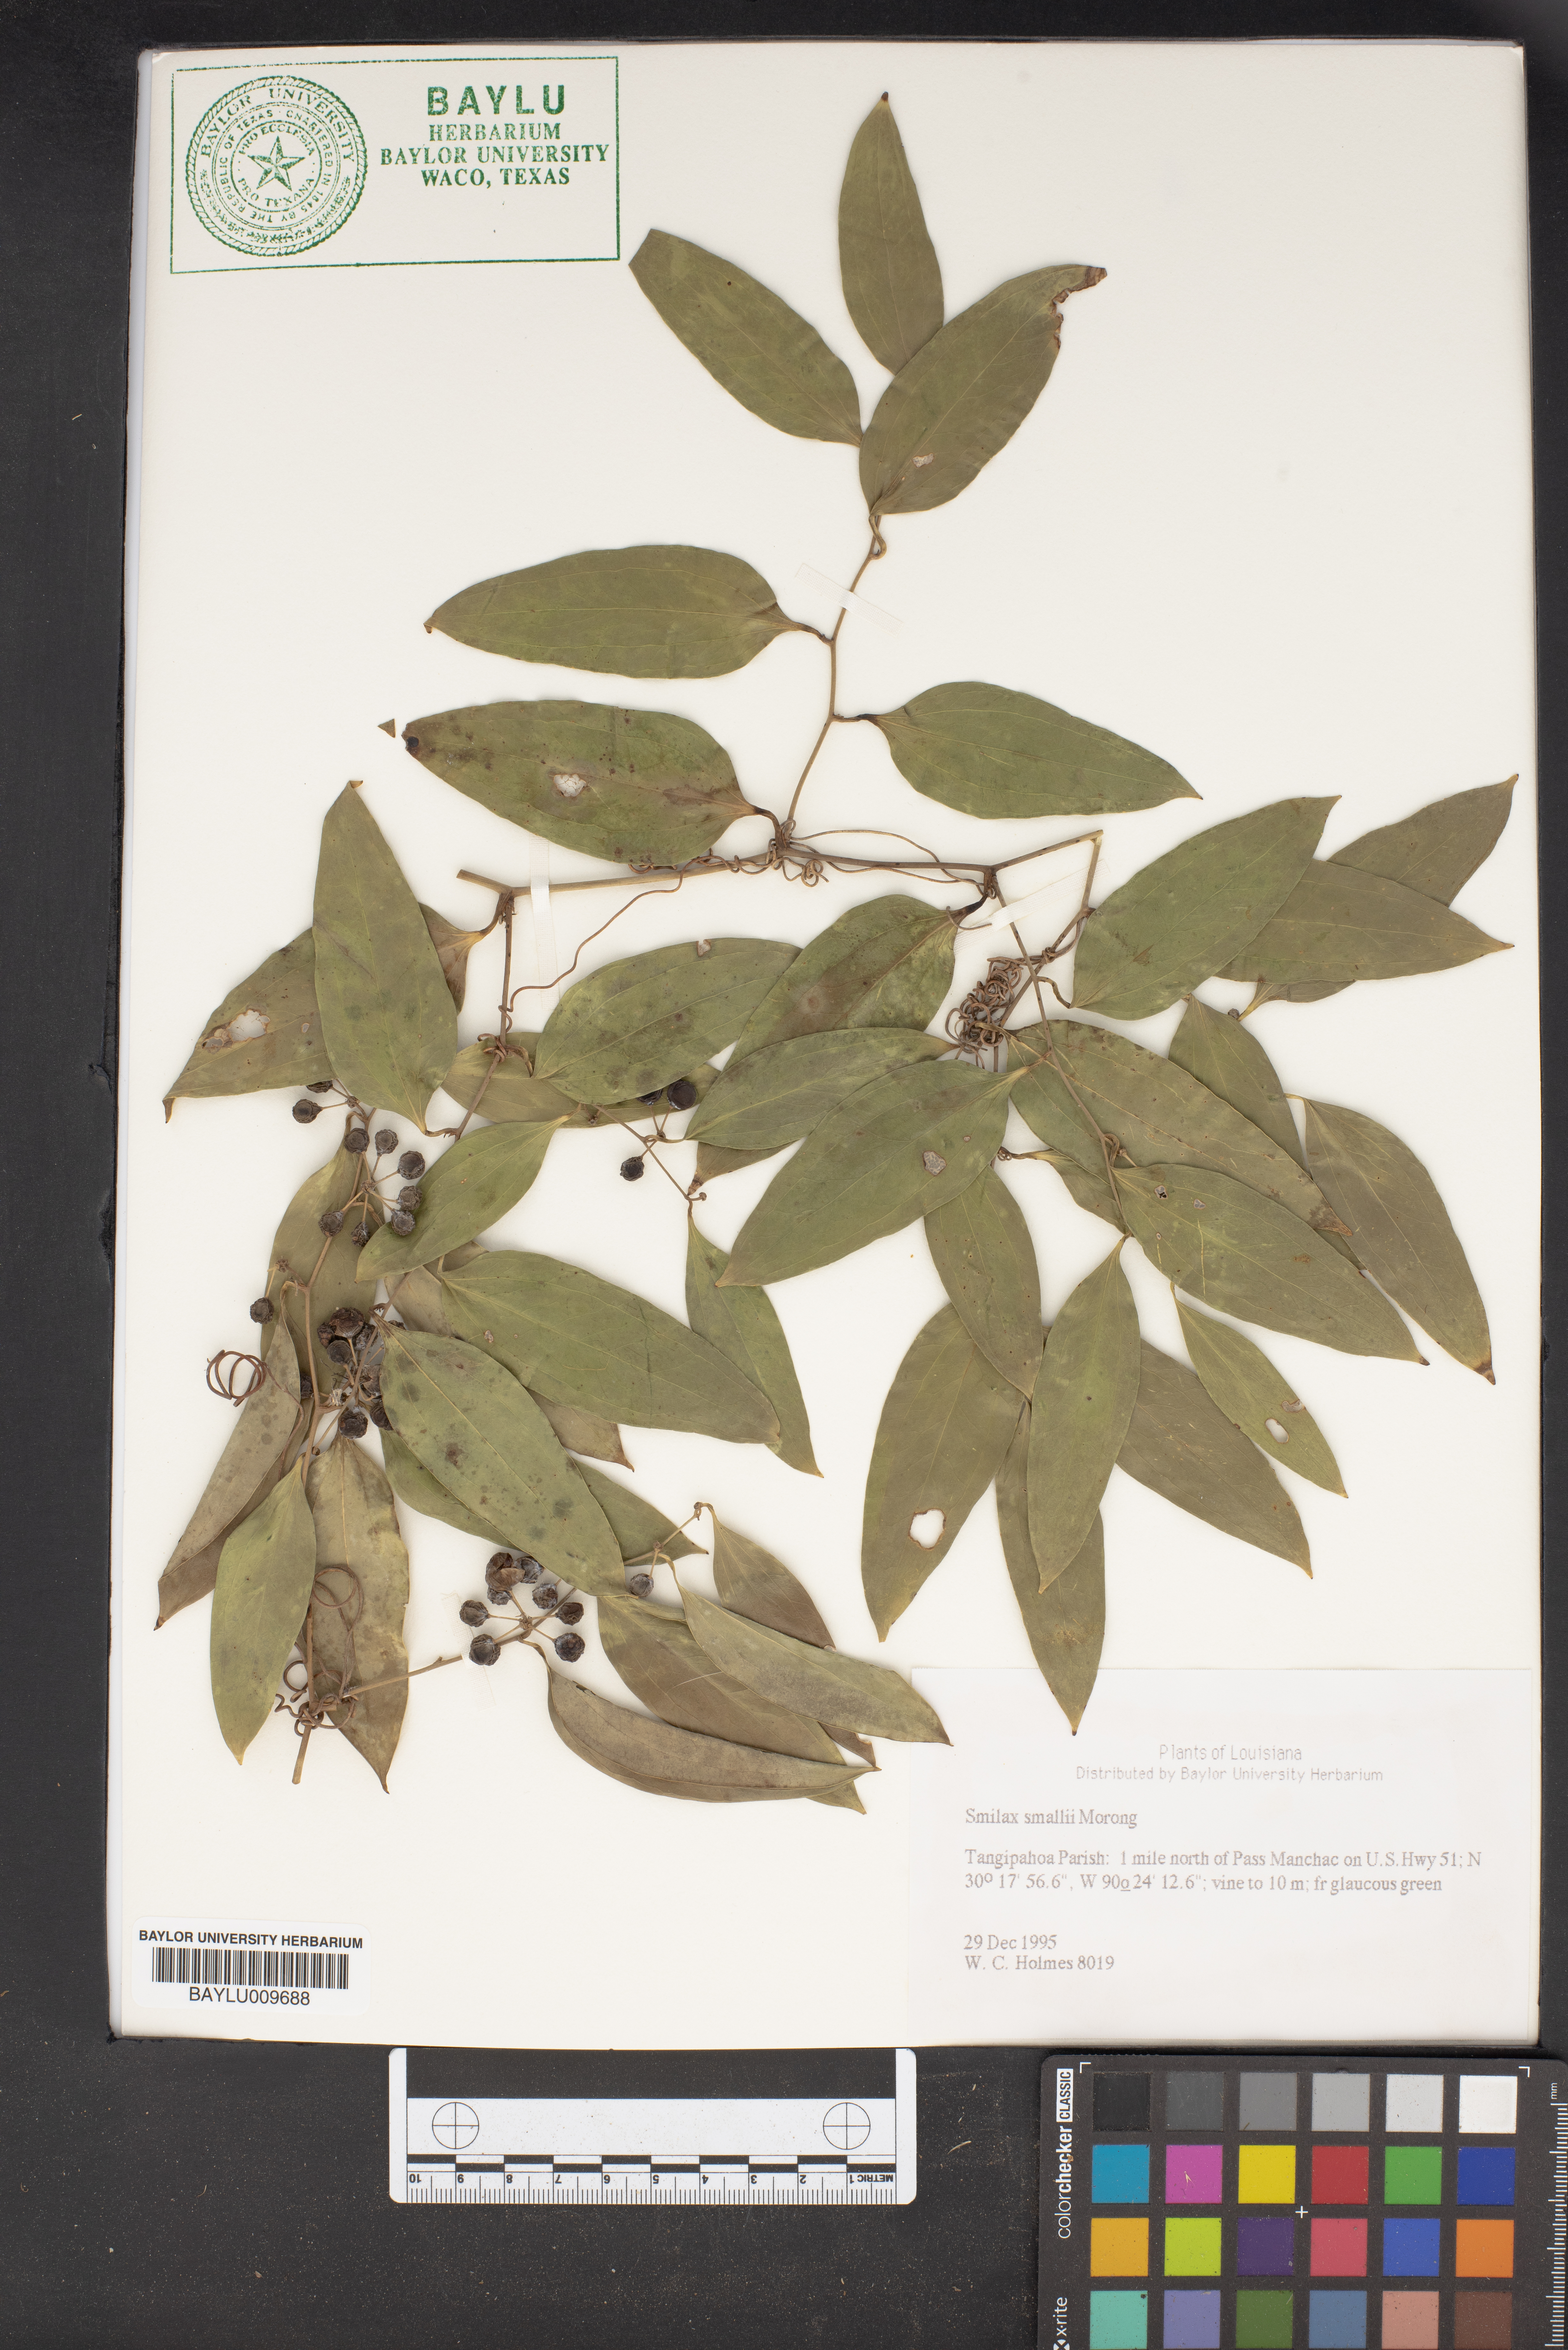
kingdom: Plantae
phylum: Tracheophyta
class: Liliopsida
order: Liliales
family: Smilacaceae
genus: Smilax
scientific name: Smilax maritima
